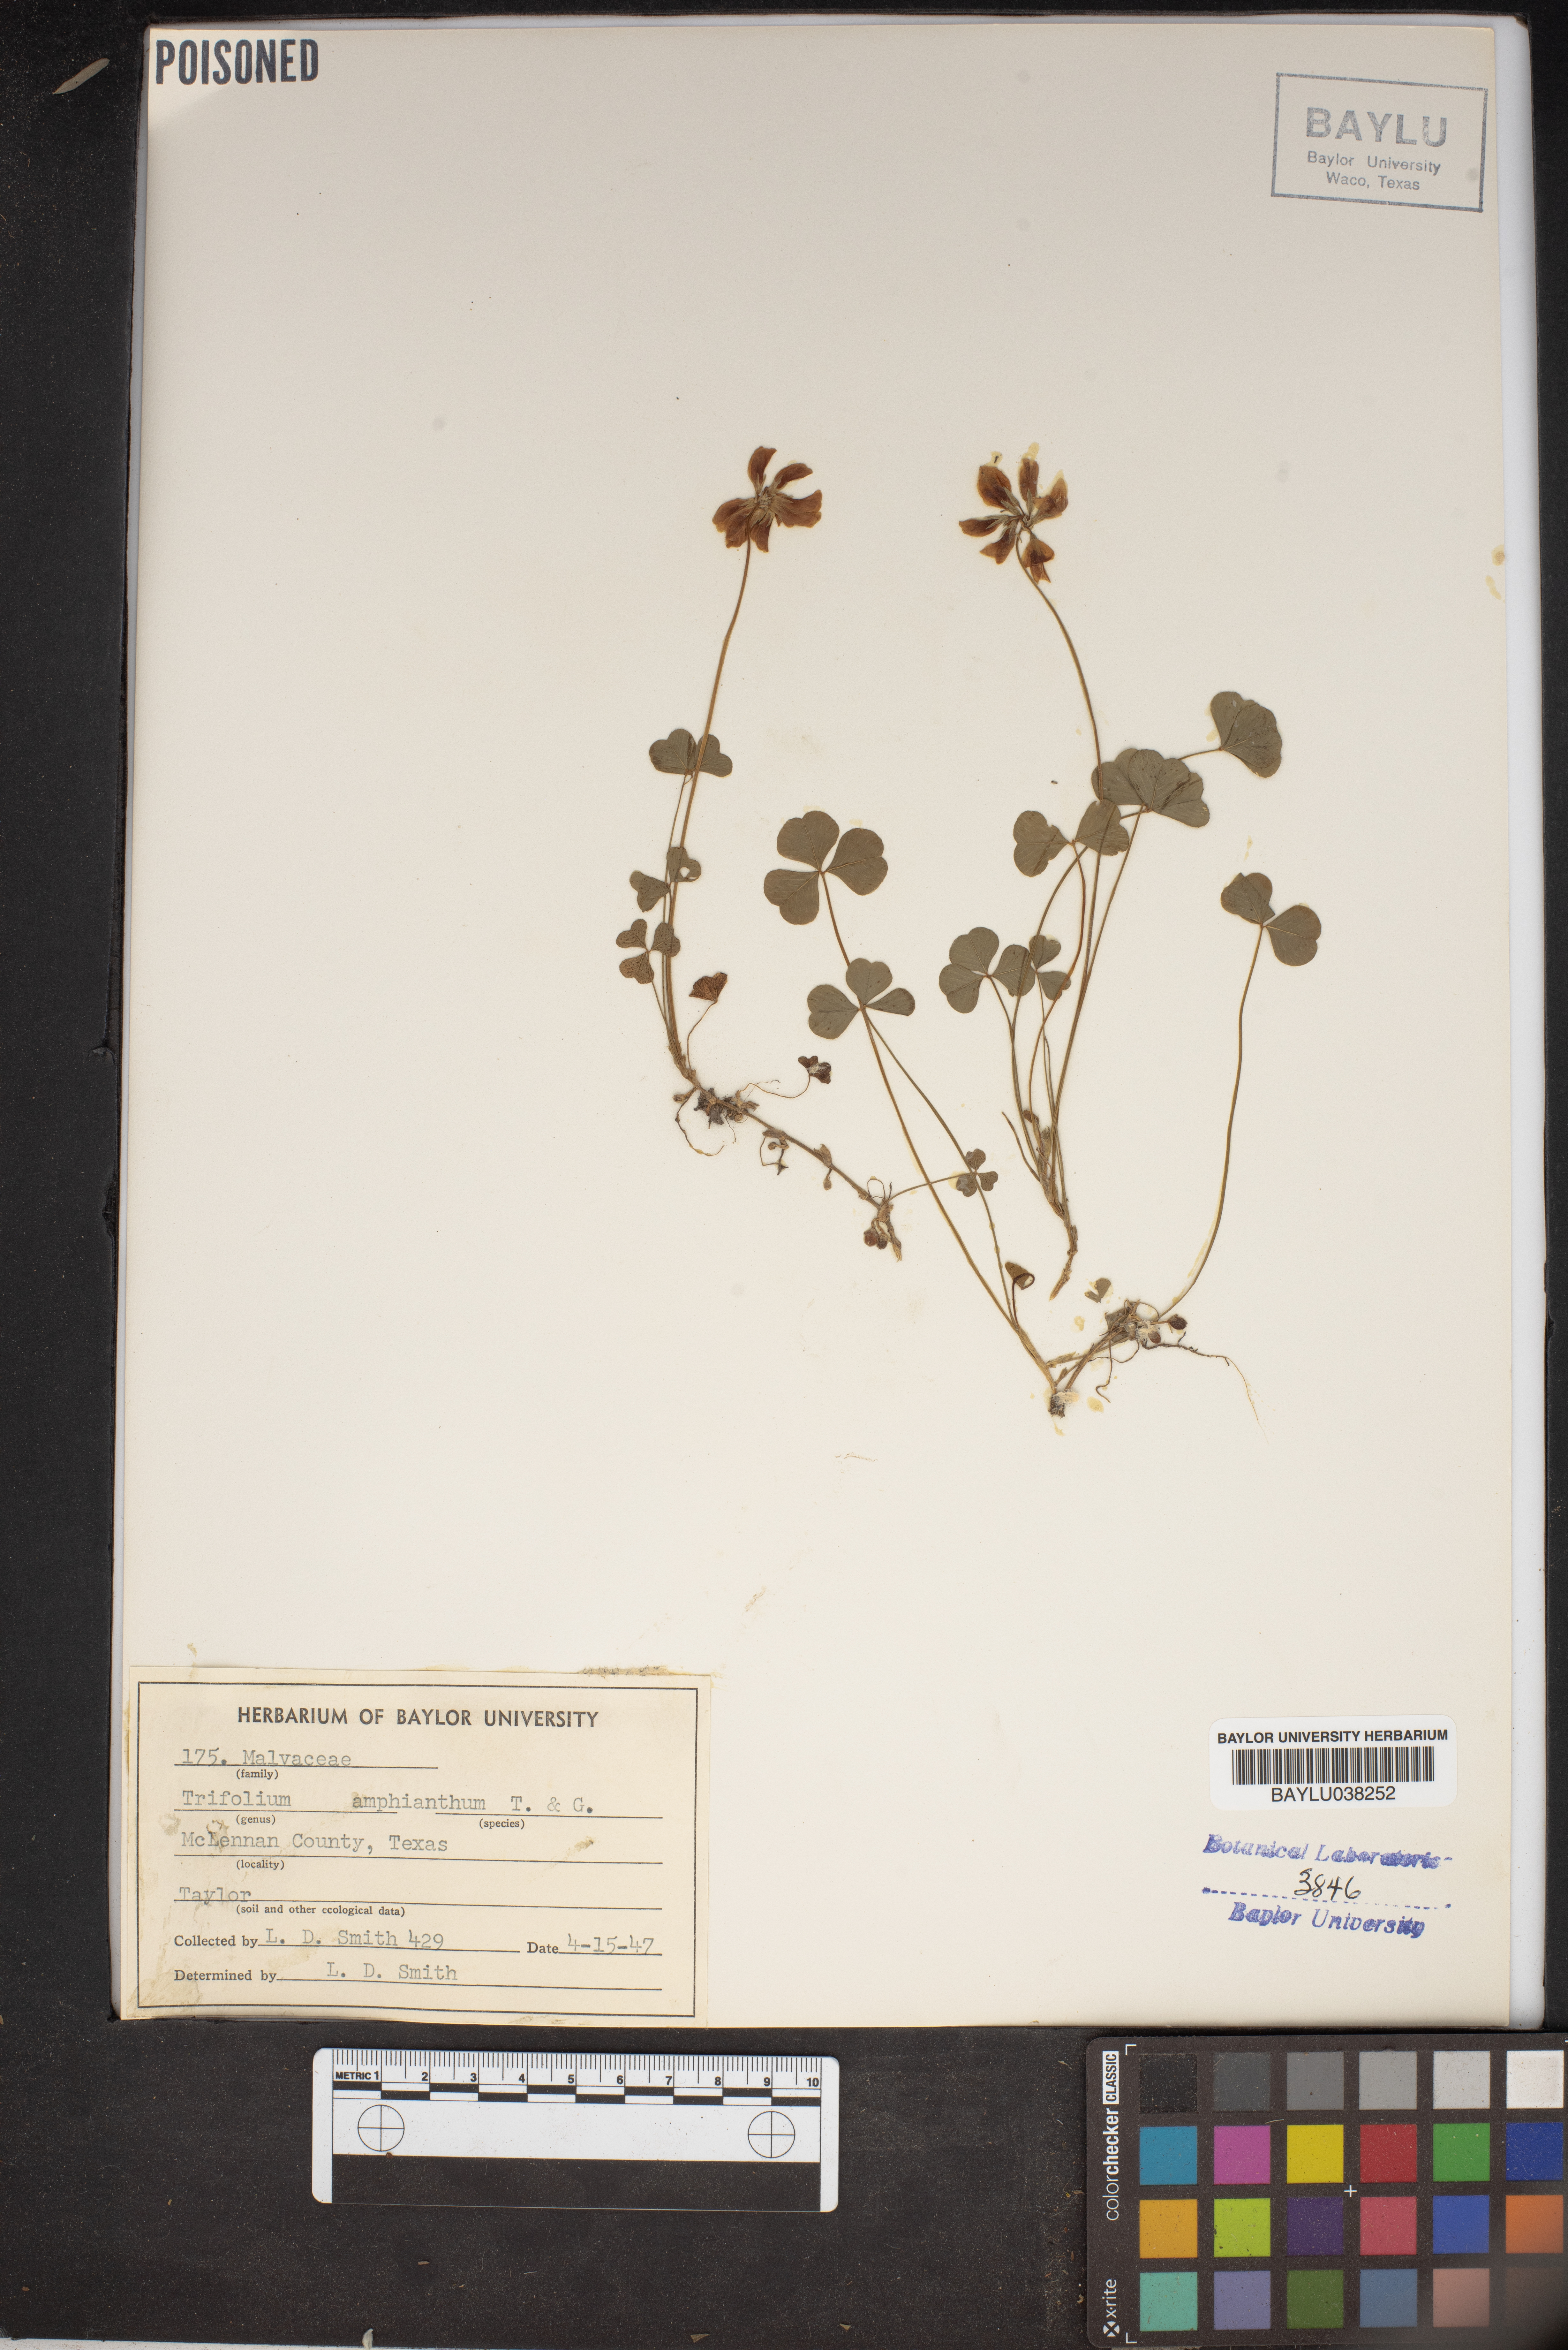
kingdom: Plantae
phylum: Tracheophyta
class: Magnoliopsida
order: Fabales
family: Fabaceae
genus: Trifolium
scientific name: Trifolium amphianthum
